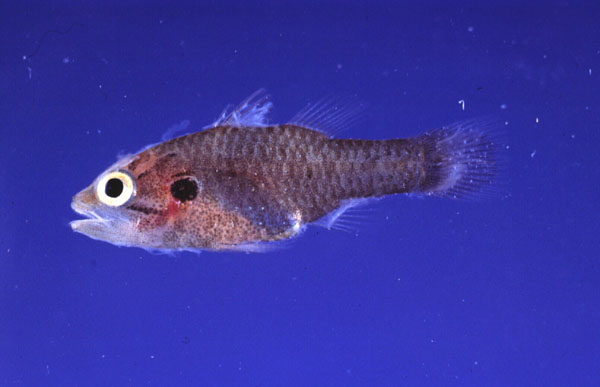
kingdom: Animalia
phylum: Chordata
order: Perciformes
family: Apogonidae
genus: Fowleria
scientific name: Fowleria aurita
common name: Crosseyed cardinalfish
